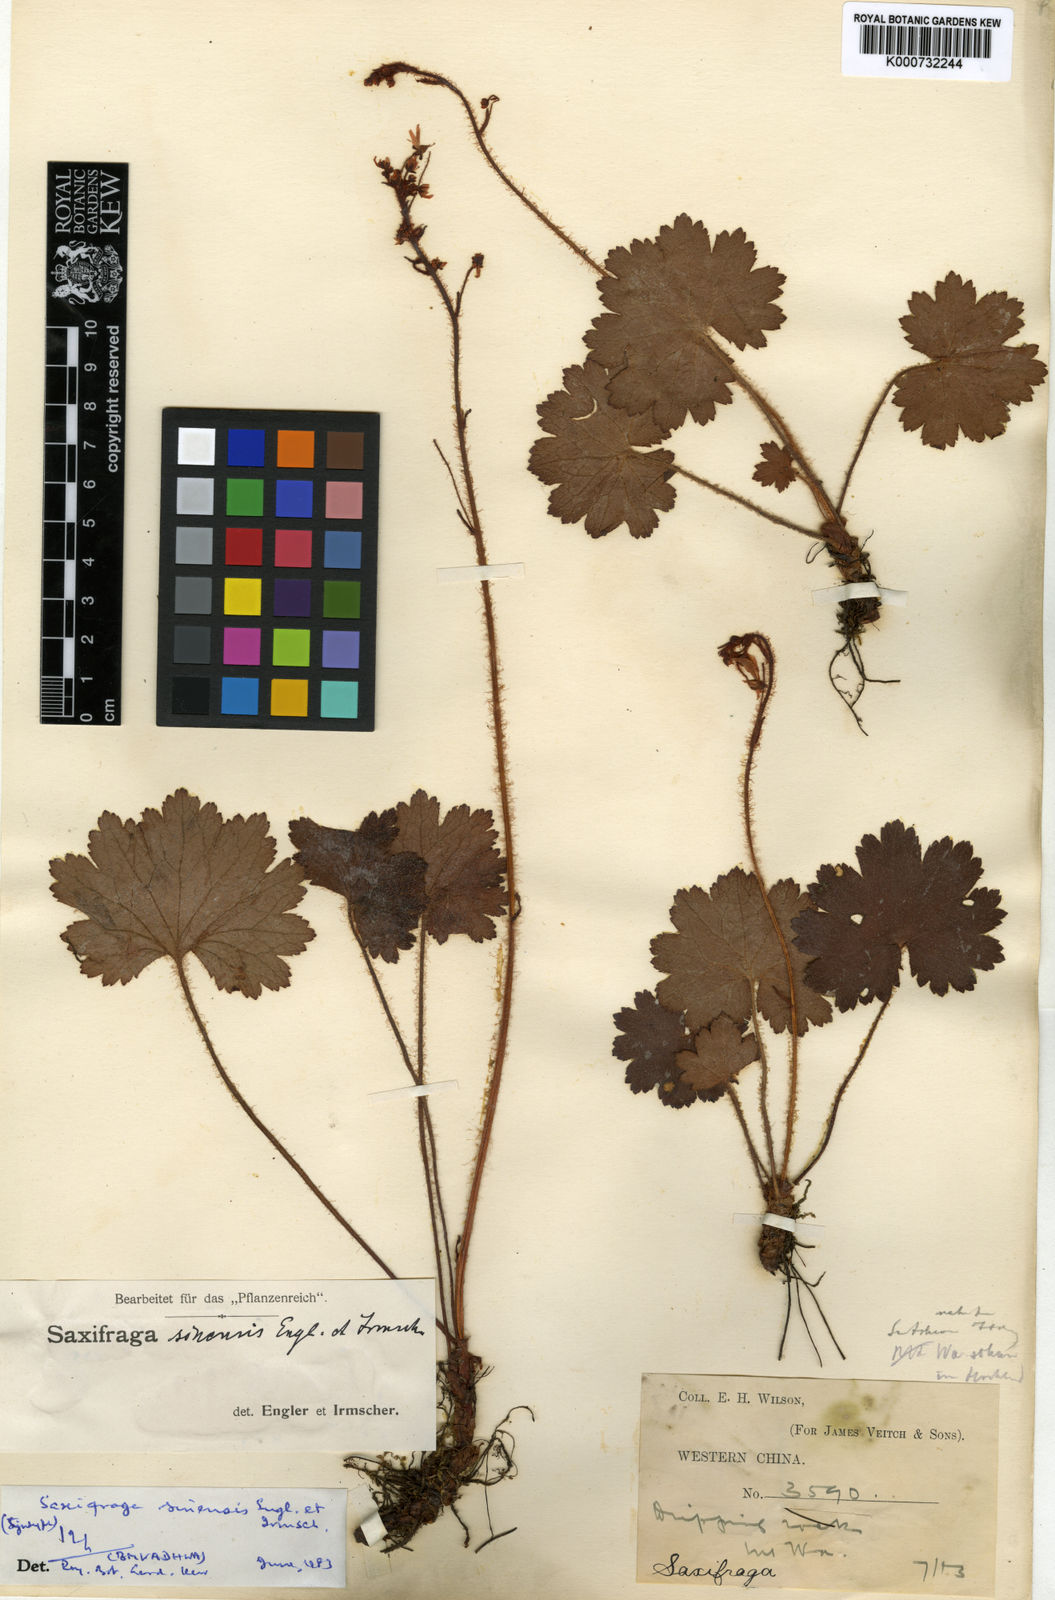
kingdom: Plantae
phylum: Tracheophyta
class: Magnoliopsida
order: Saxifragales
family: Saxifragaceae
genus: Saxifraga
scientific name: Saxifraga rufescens
